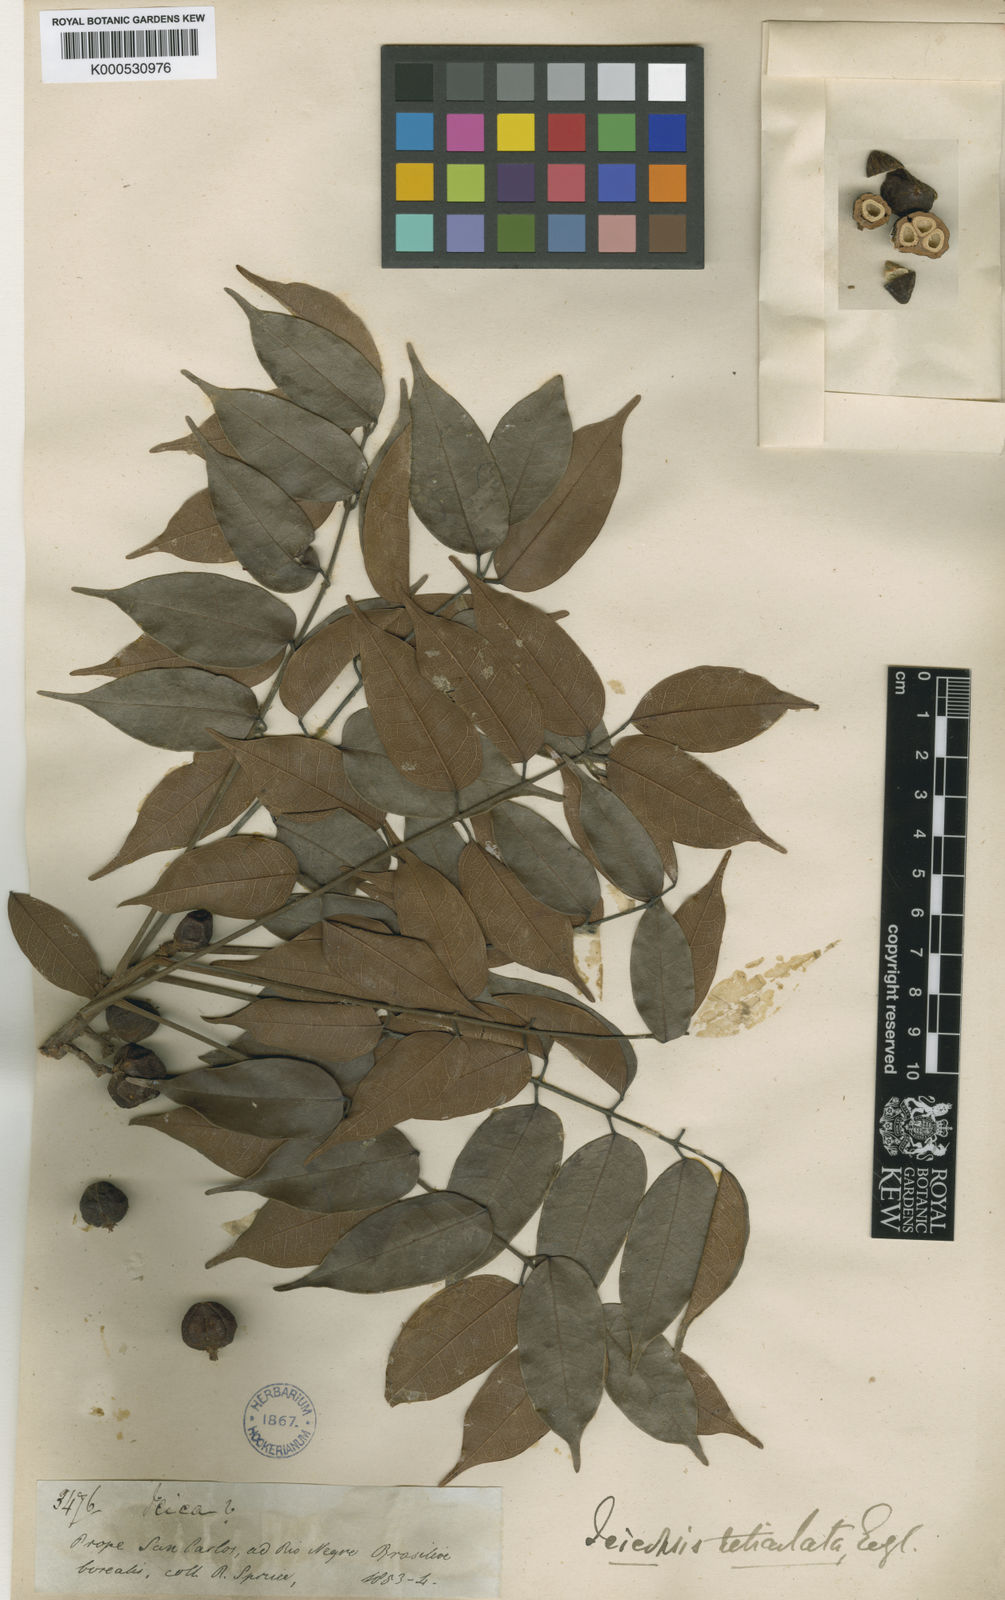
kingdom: Plantae
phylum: Tracheophyta
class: Magnoliopsida
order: Sapindales
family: Burseraceae
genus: Protium
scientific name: Protium reticulatum
